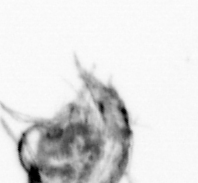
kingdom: Animalia
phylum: Arthropoda
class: Copepoda
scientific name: Copepoda
